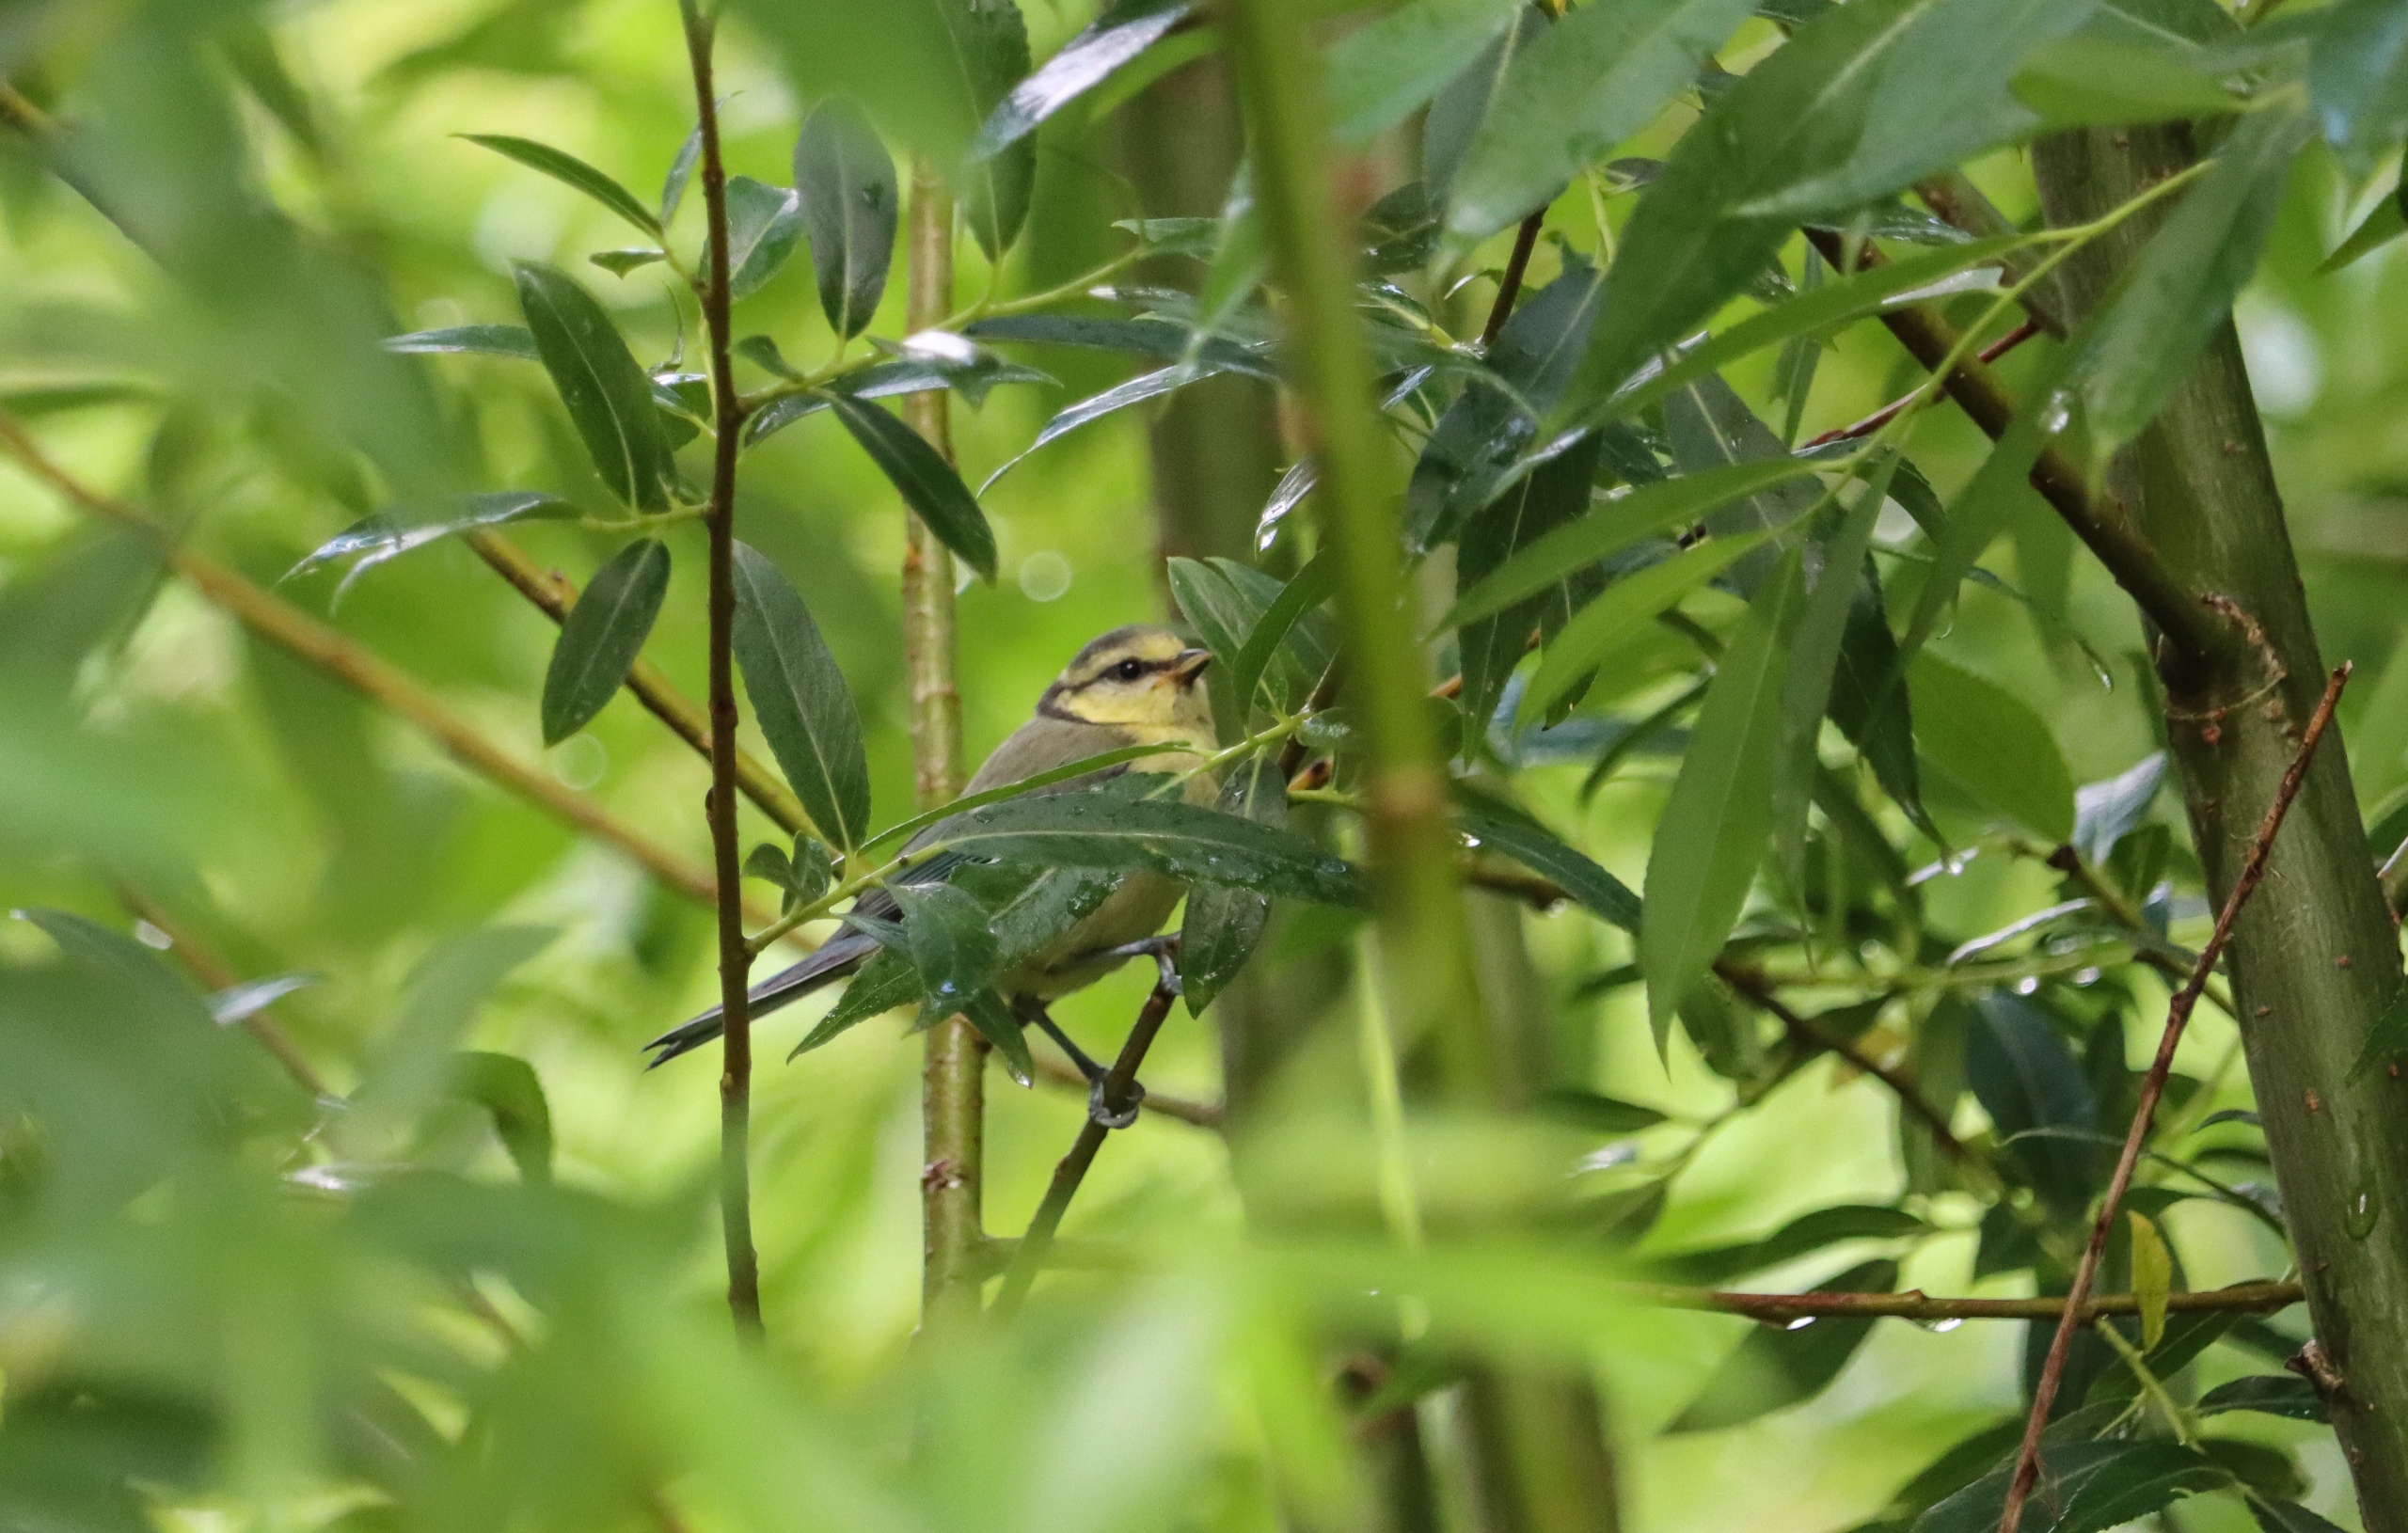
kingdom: Animalia
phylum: Chordata
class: Aves
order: Passeriformes
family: Paridae
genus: Cyanistes
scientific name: Cyanistes caeruleus
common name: Blåmejse
